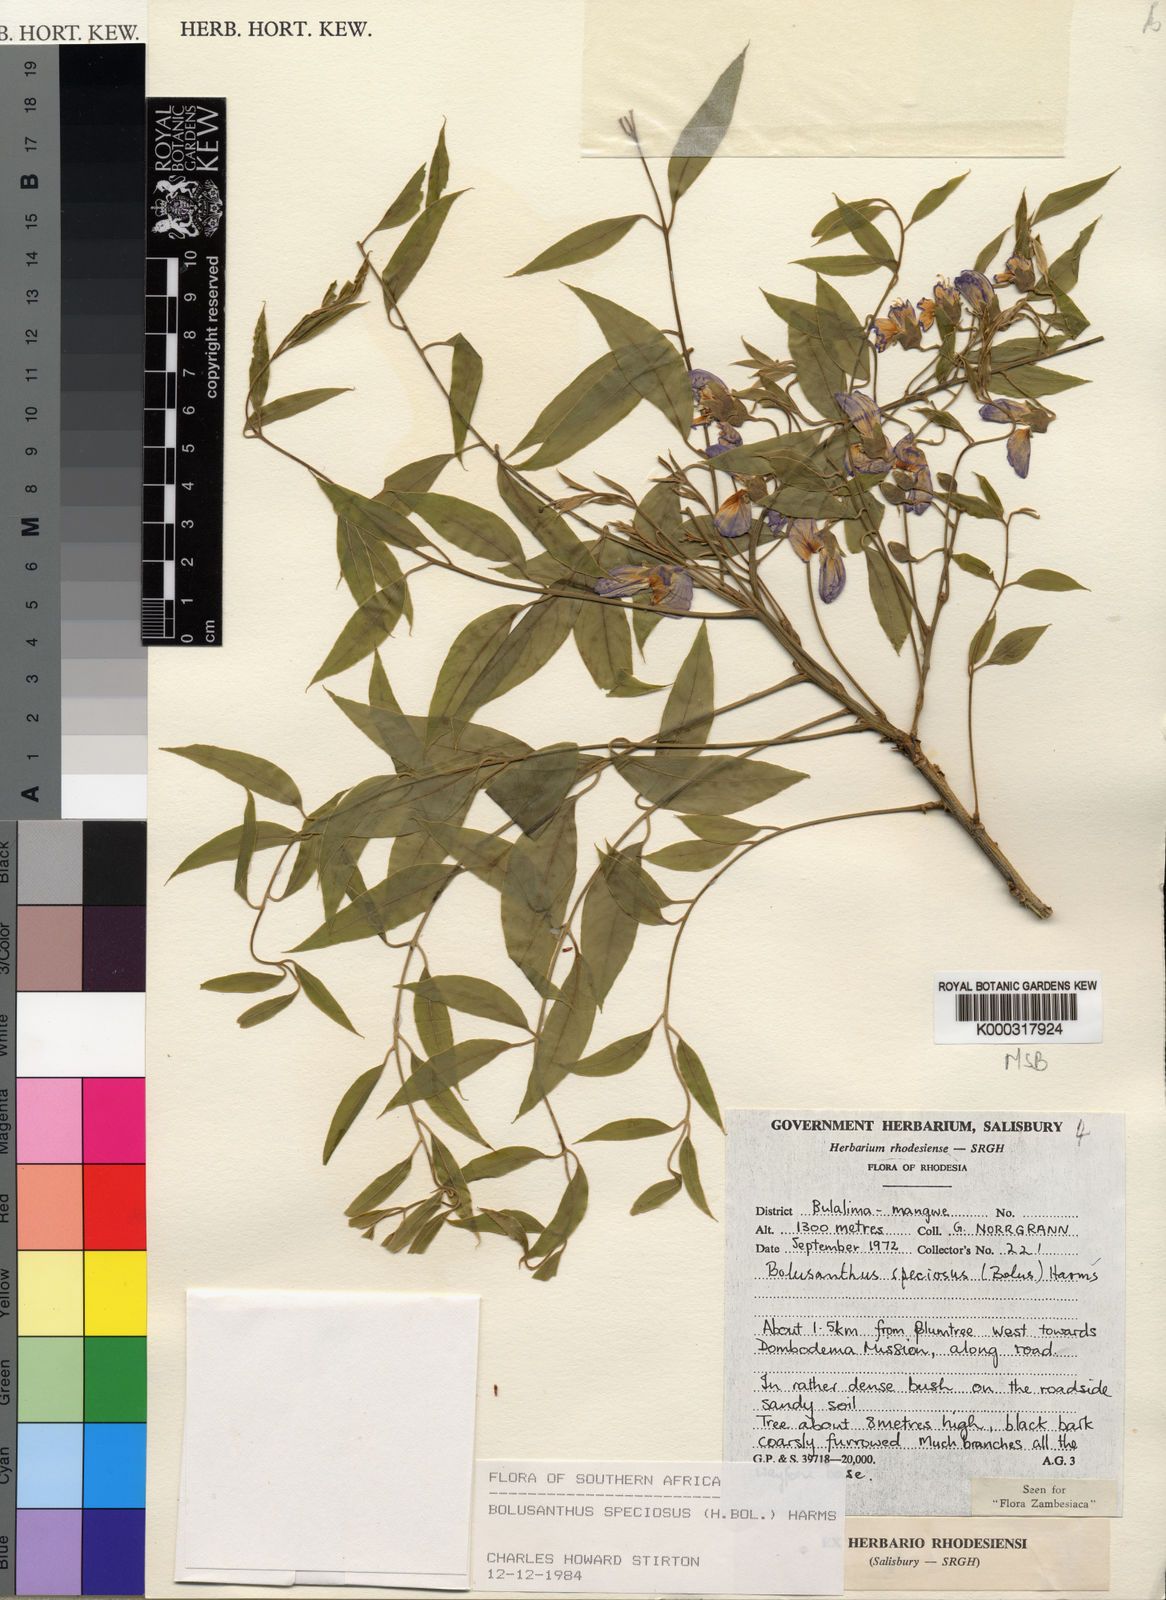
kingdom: Plantae
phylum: Tracheophyta
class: Magnoliopsida
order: Fabales
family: Fabaceae
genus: Bolusanthus
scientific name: Bolusanthus speciosus
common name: Tree wisteria
